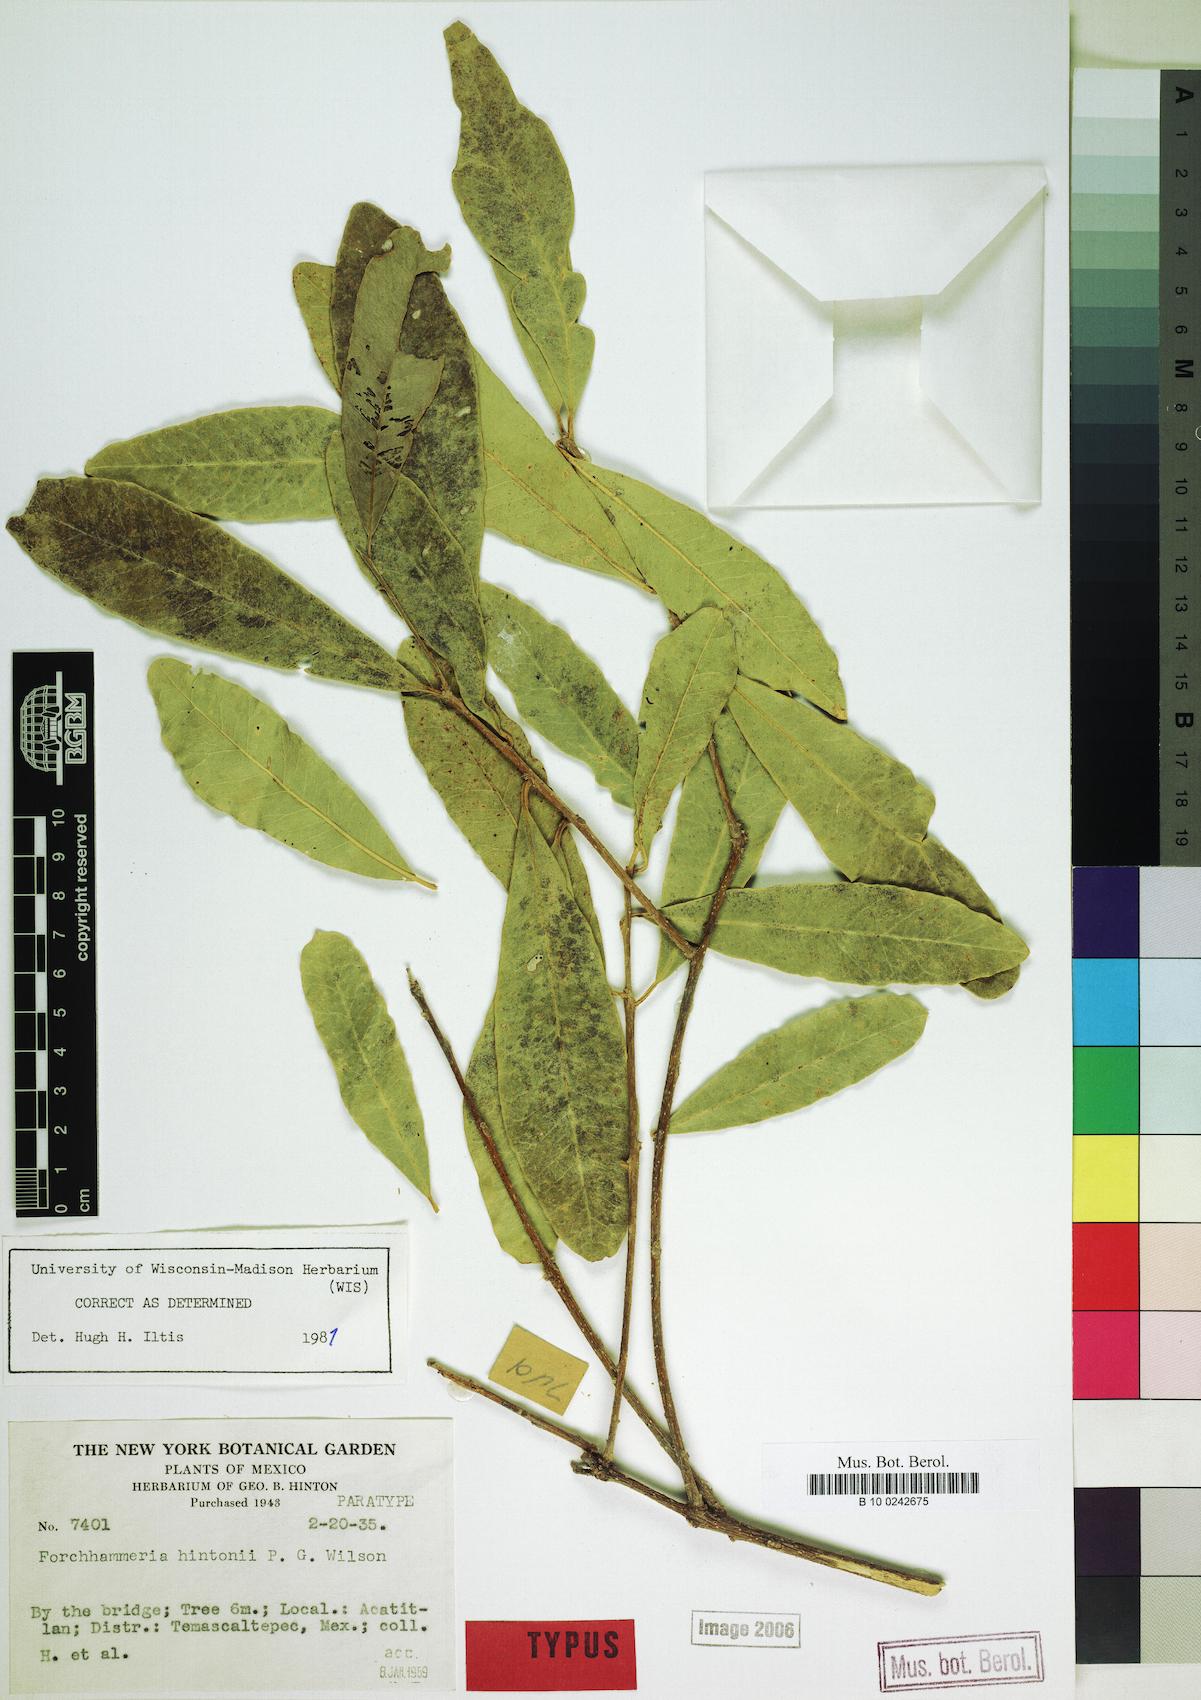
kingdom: Plantae
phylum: Tracheophyta
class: Magnoliopsida
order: Brassicales
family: Stixaceae
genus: Forchhammeria
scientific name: Forchhammeria hintonii
